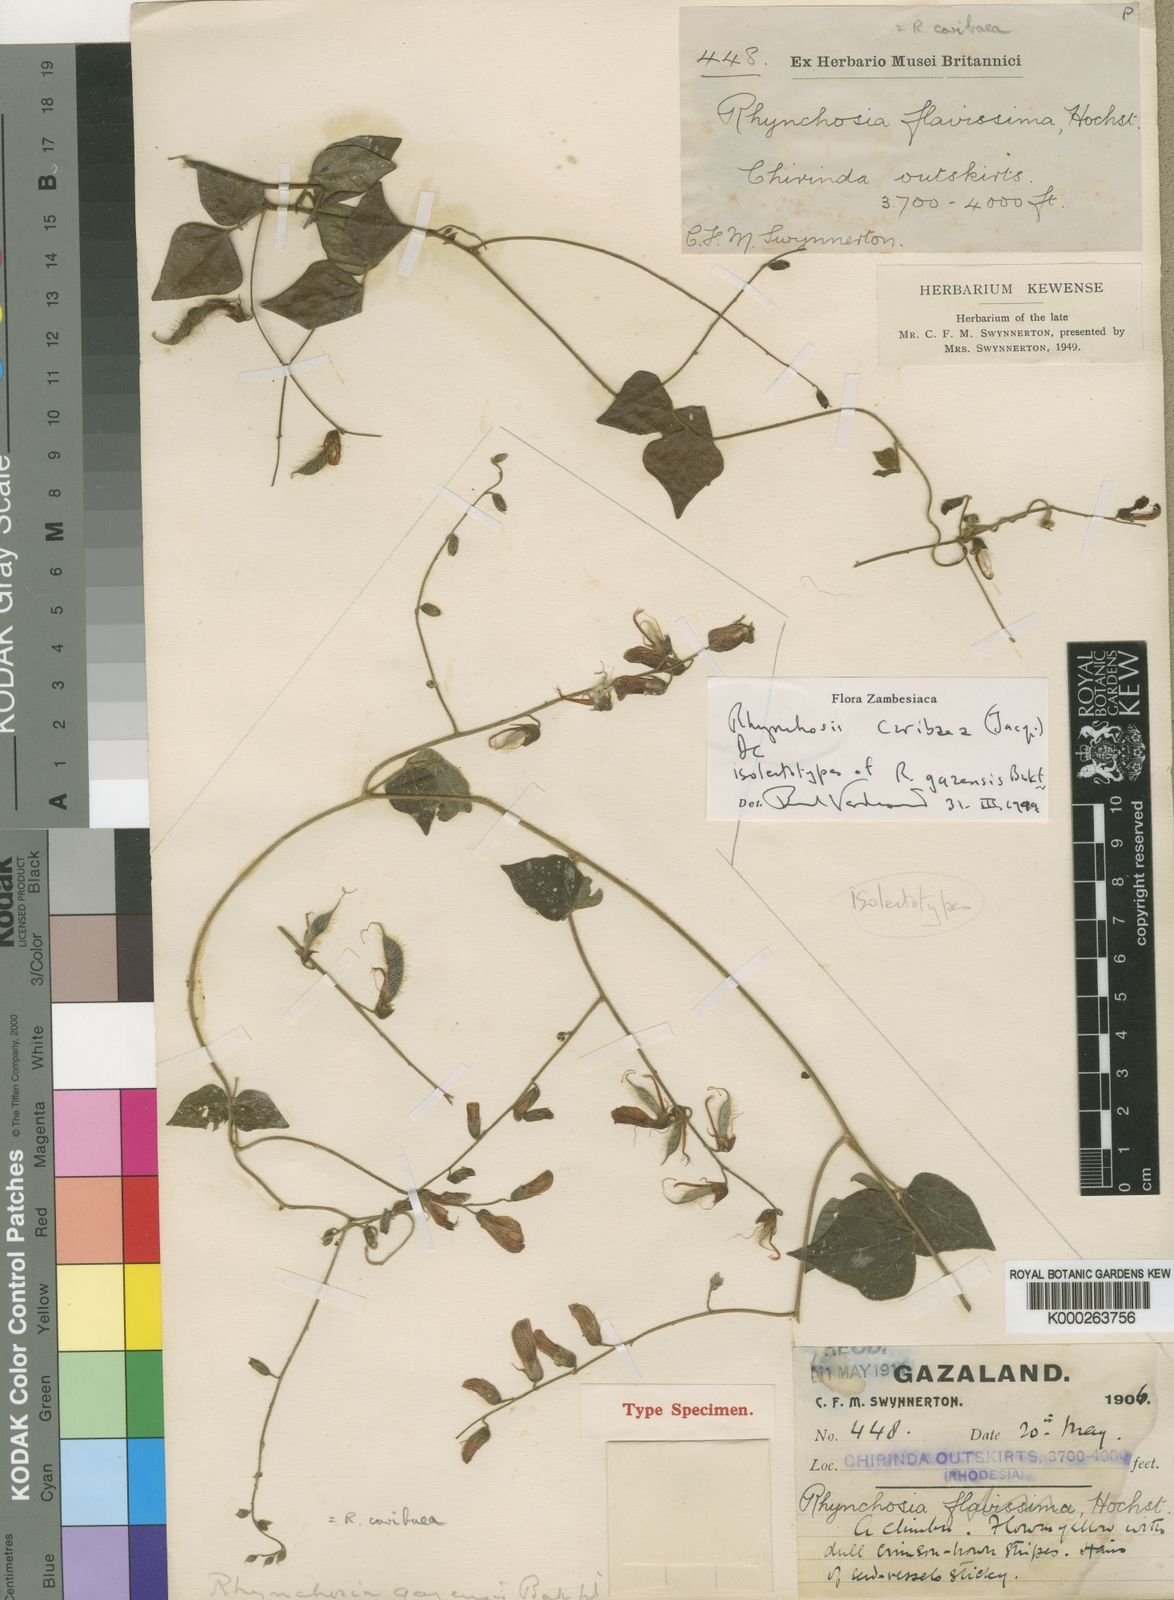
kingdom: Plantae
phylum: Tracheophyta
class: Magnoliopsida
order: Fabales
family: Fabaceae
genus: Rhynchosia
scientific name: Rhynchosia caribaea
